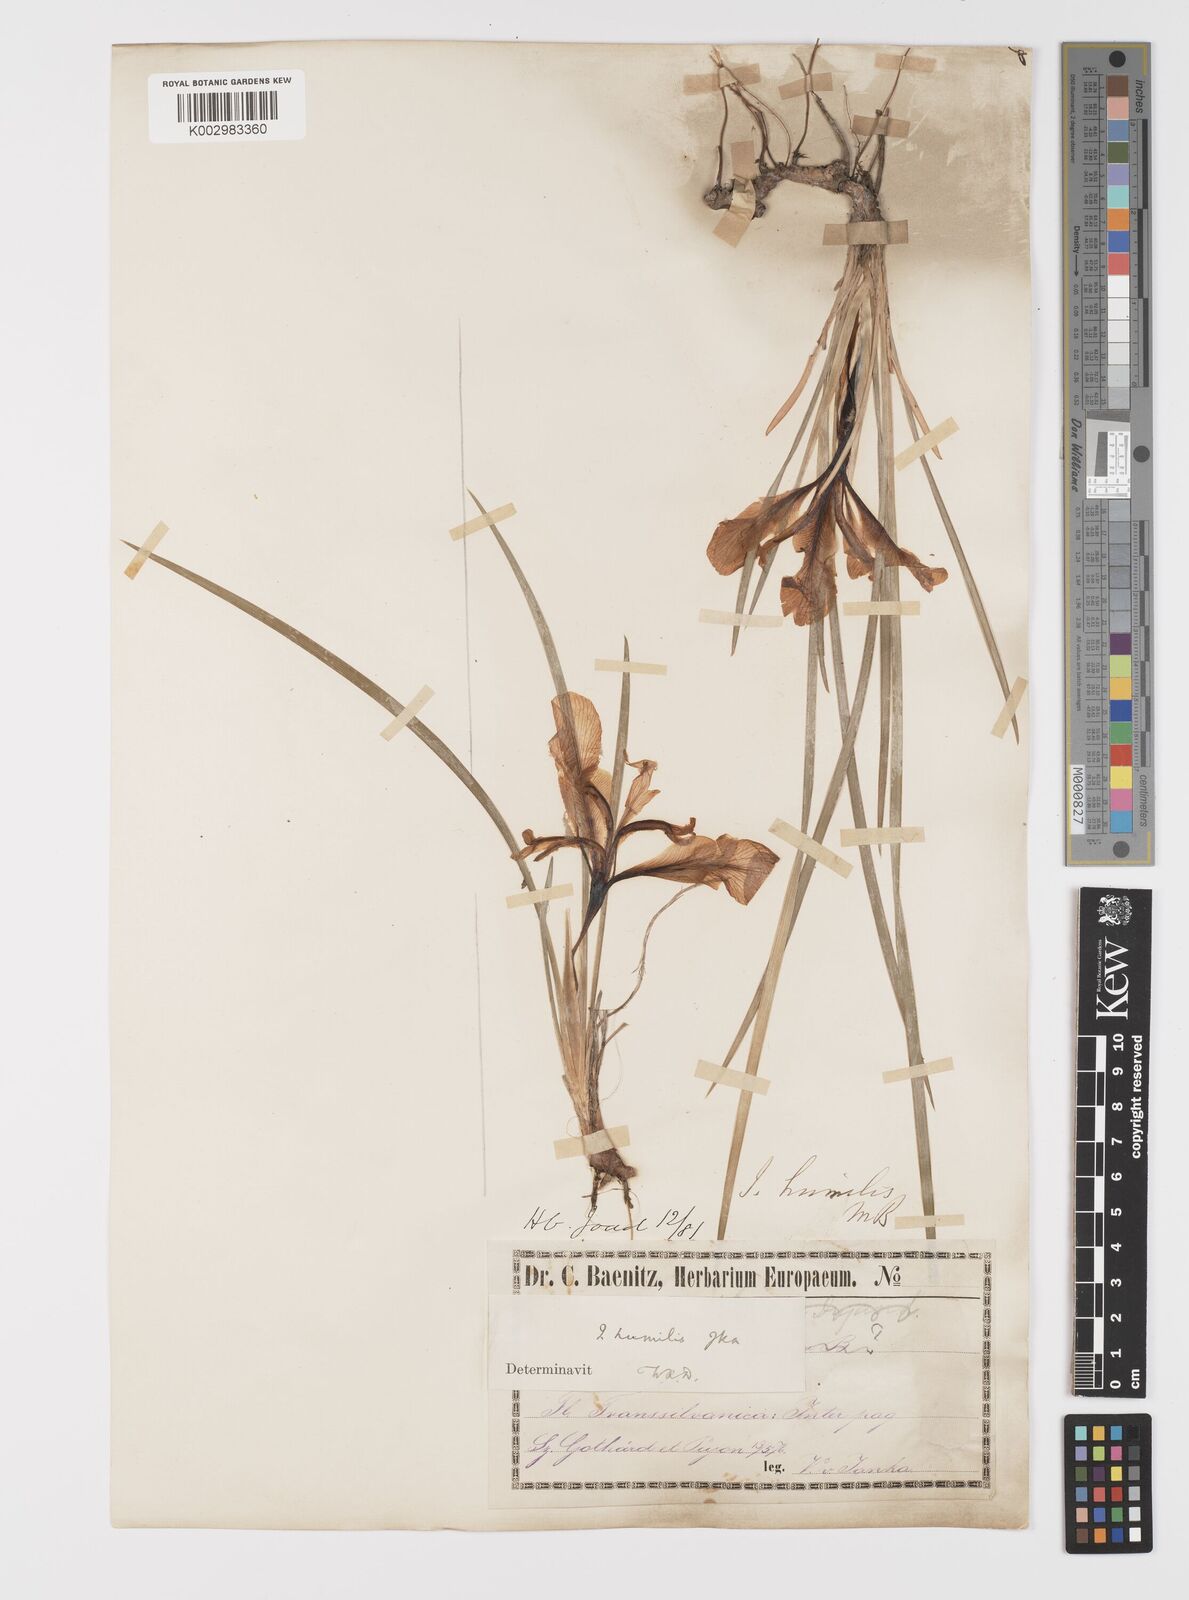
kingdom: Plantae
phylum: Tracheophyta
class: Liliopsida
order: Asparagales
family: Iridaceae
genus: Iris
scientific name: Iris pontica
